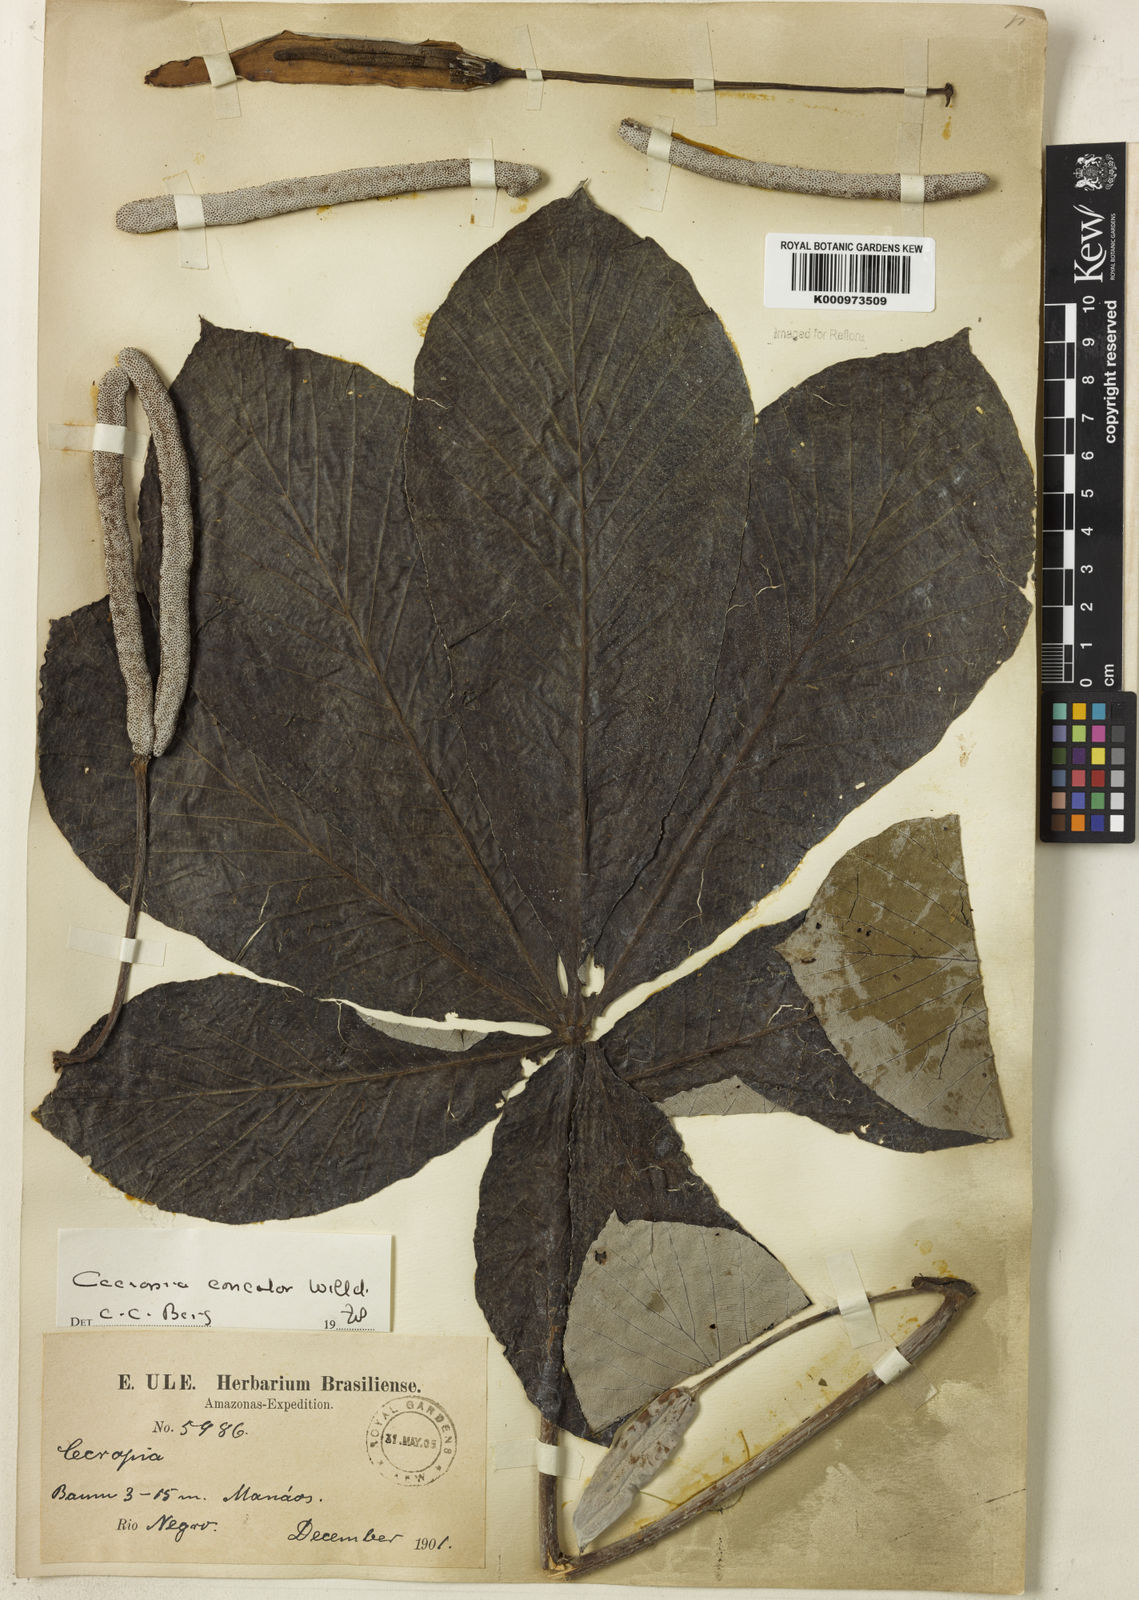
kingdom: Plantae
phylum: Tracheophyta
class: Magnoliopsida
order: Rosales
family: Urticaceae
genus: Cecropia
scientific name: Cecropia concolor
